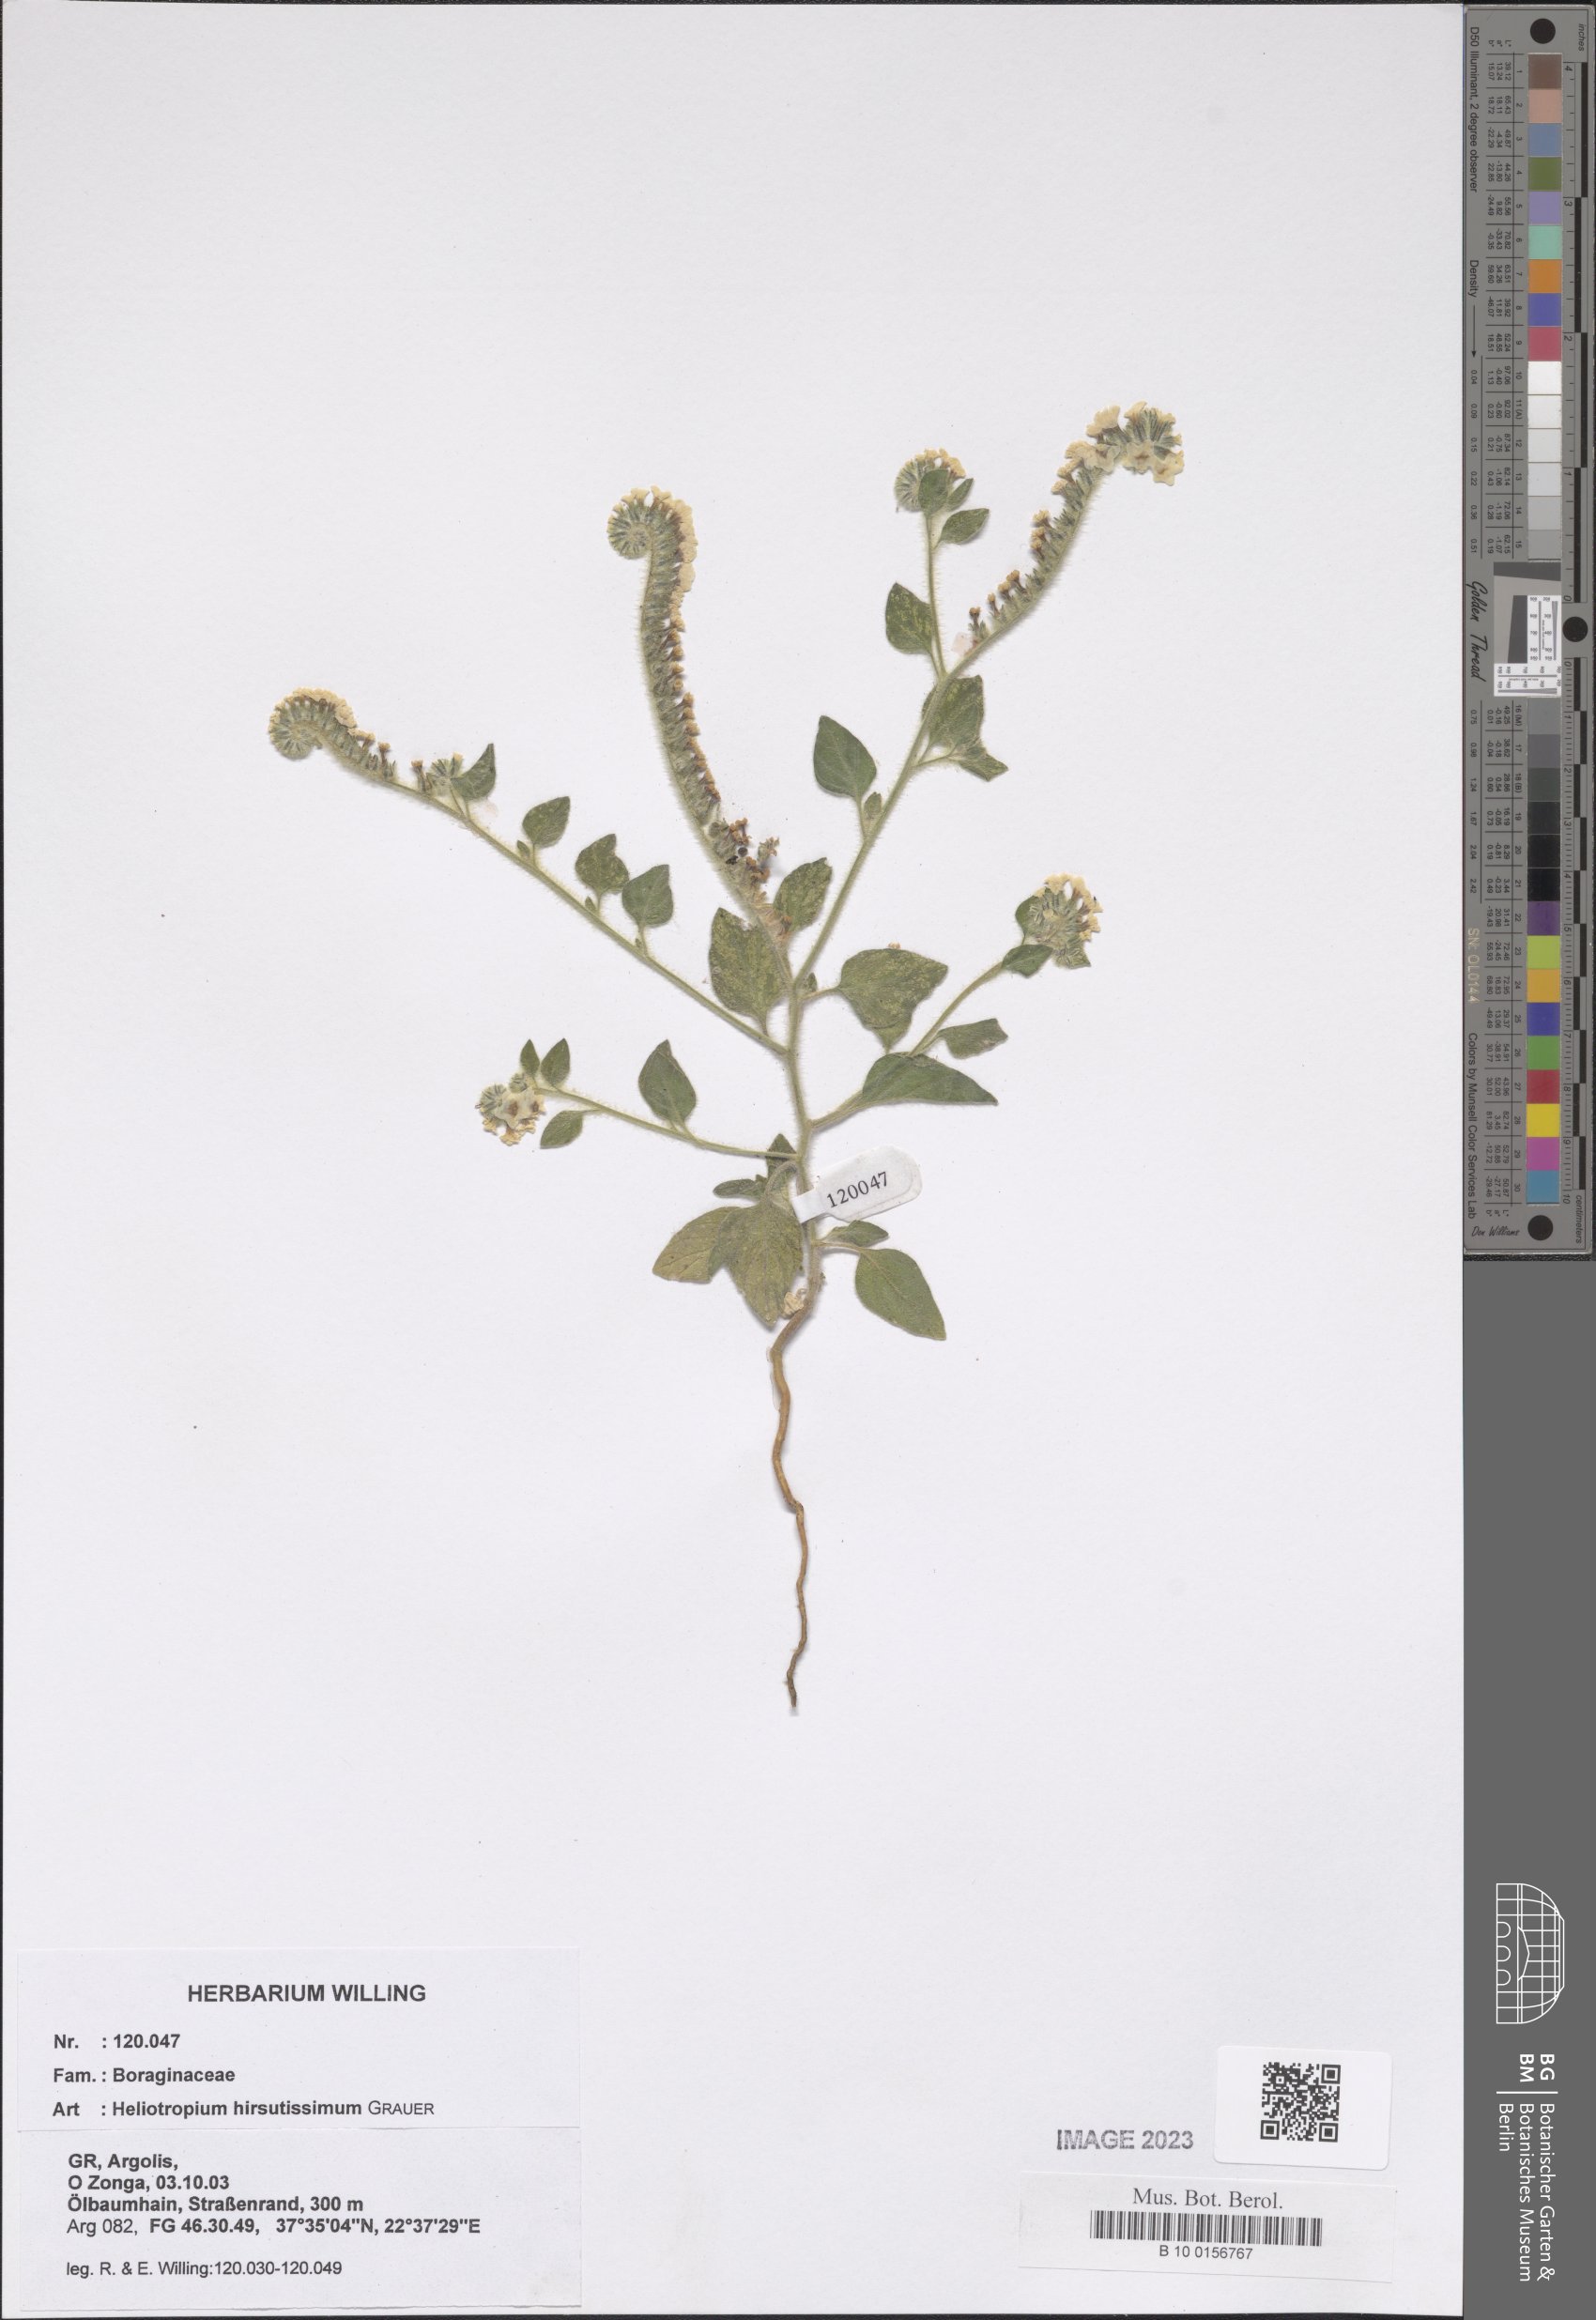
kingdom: Plantae
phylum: Tracheophyta
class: Magnoliopsida
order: Boraginales
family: Heliotropiaceae
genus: Heliotropium
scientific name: Heliotropium hirsutissimum
